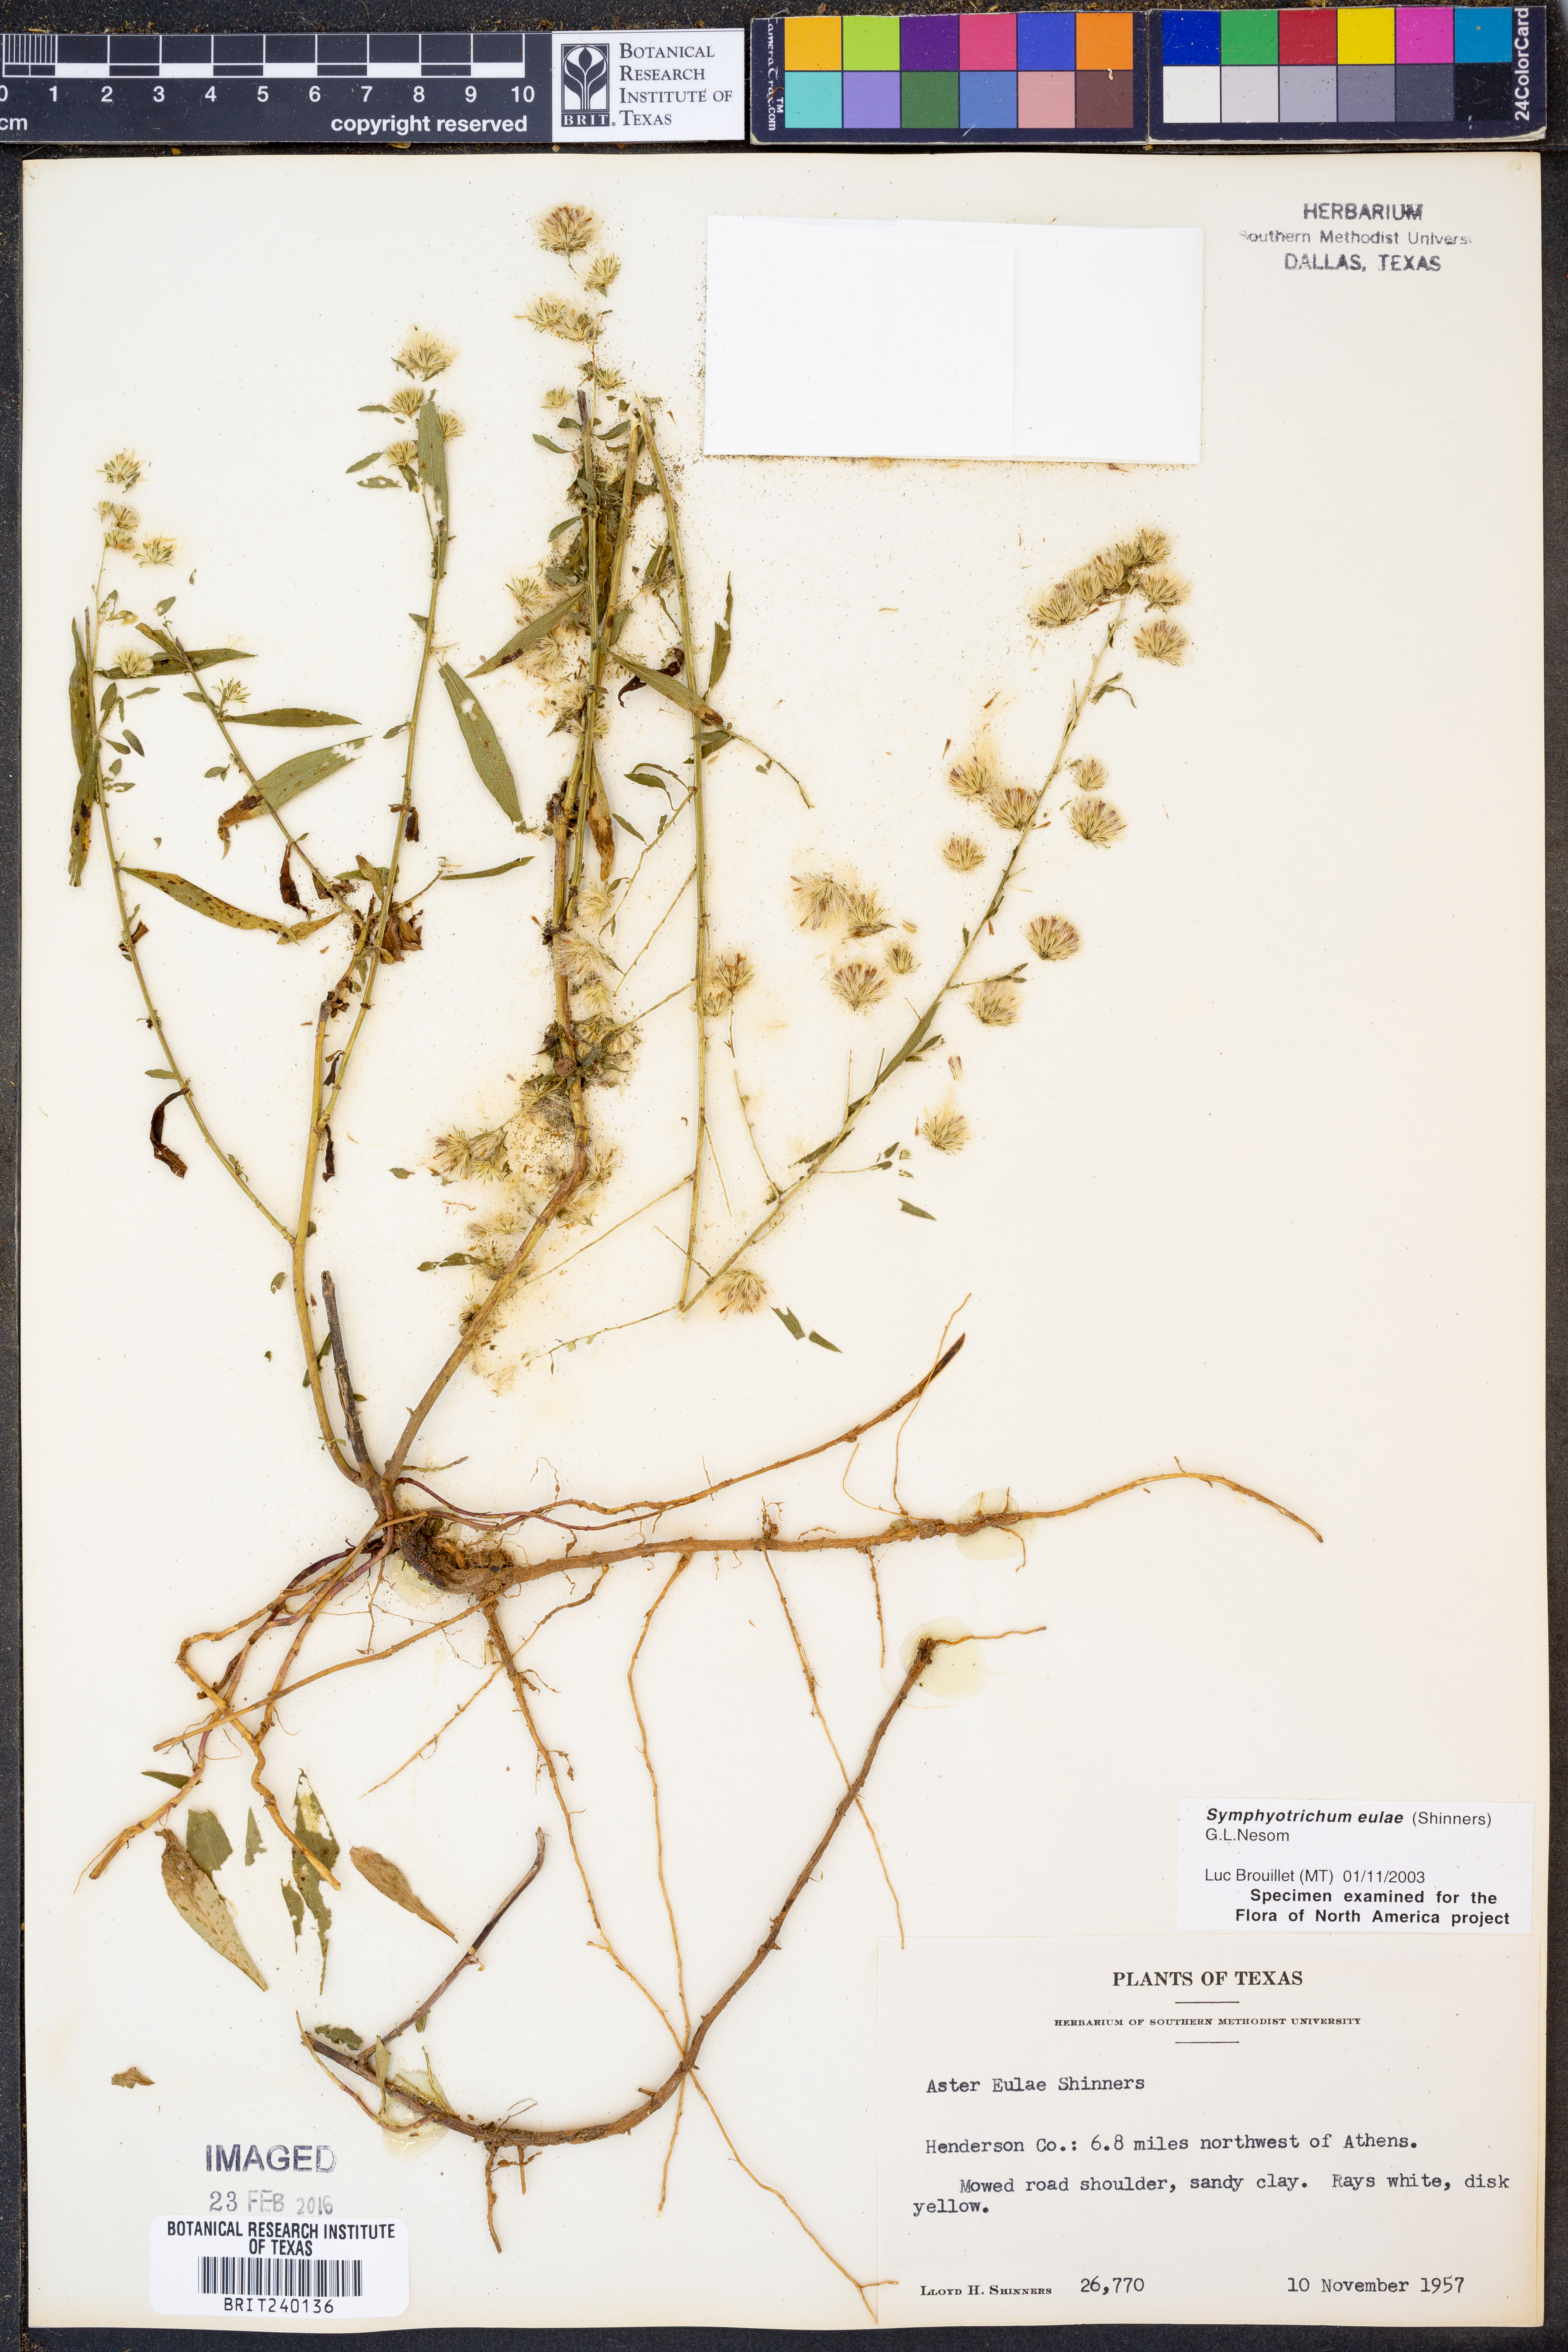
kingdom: Plantae
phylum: Tracheophyta
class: Magnoliopsida
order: Asterales
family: Asteraceae
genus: Symphyotrichum
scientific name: Symphyotrichum eulae
